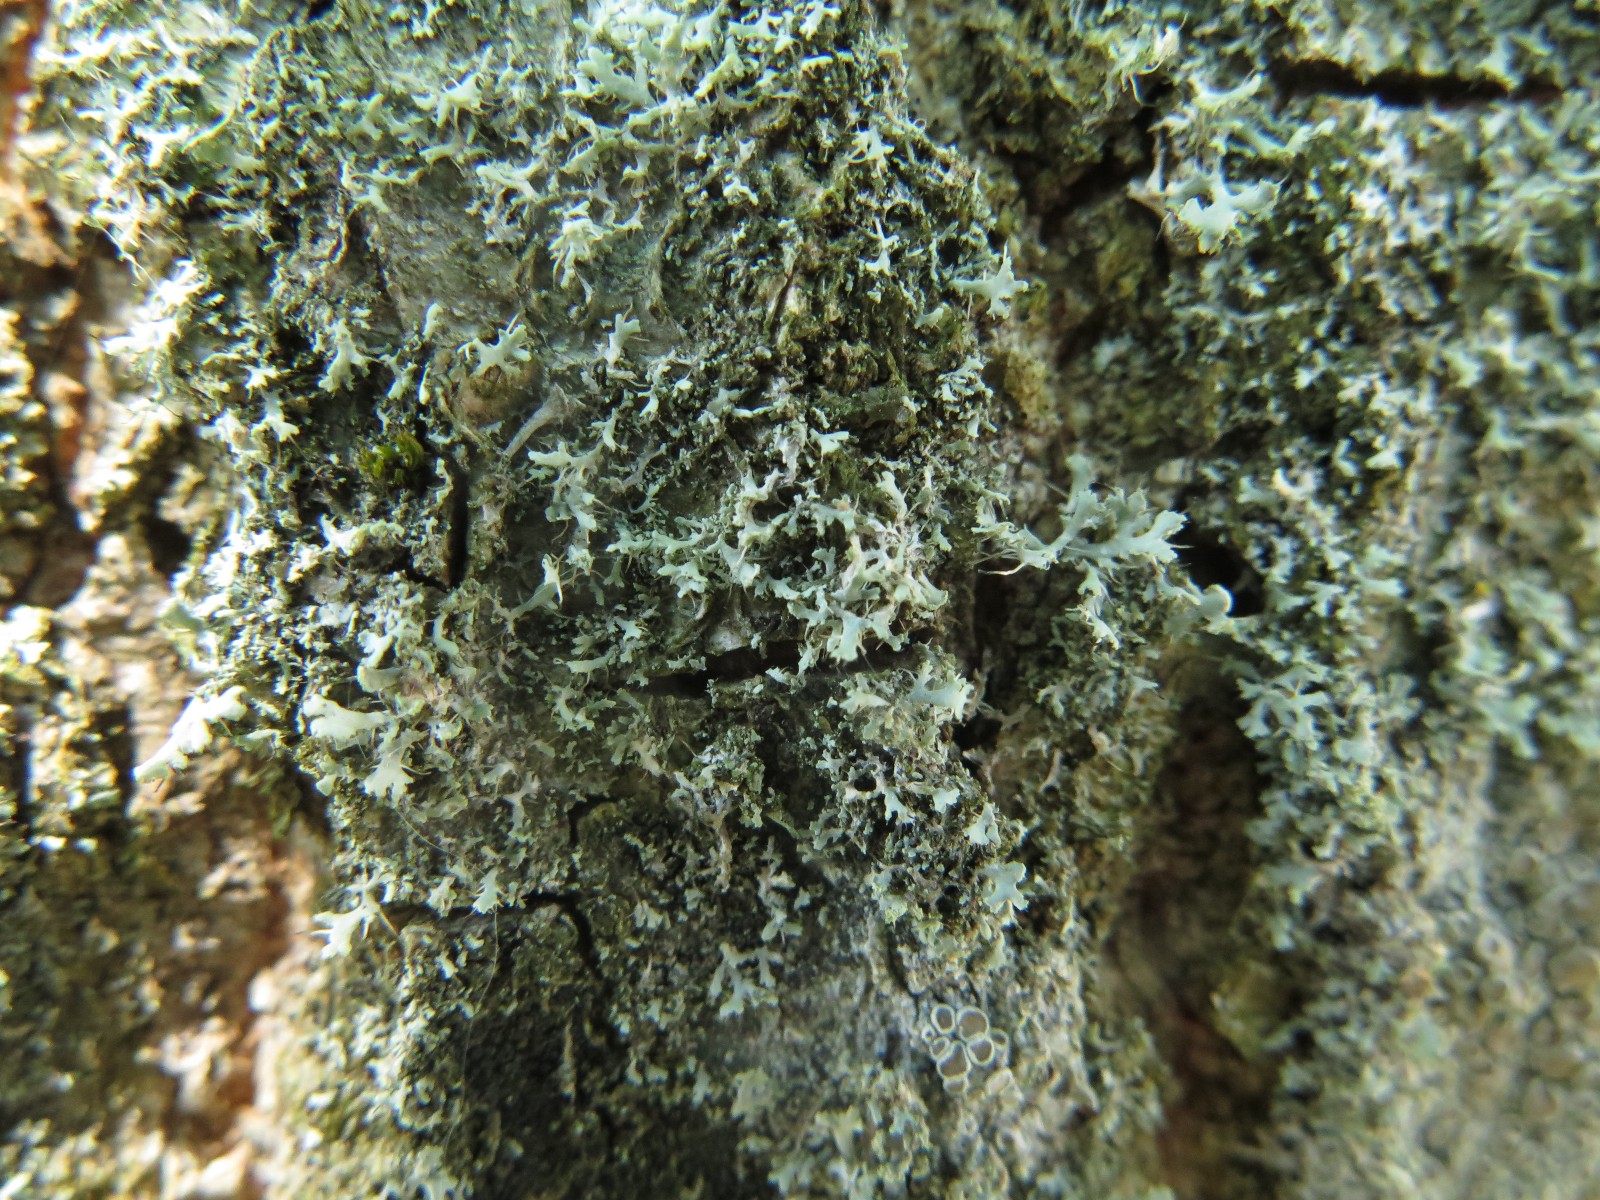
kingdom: Fungi
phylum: Ascomycota
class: Lecanoromycetes
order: Caliciales
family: Physciaceae
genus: Physcia
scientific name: Physcia tenella
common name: spæd rosetlav
